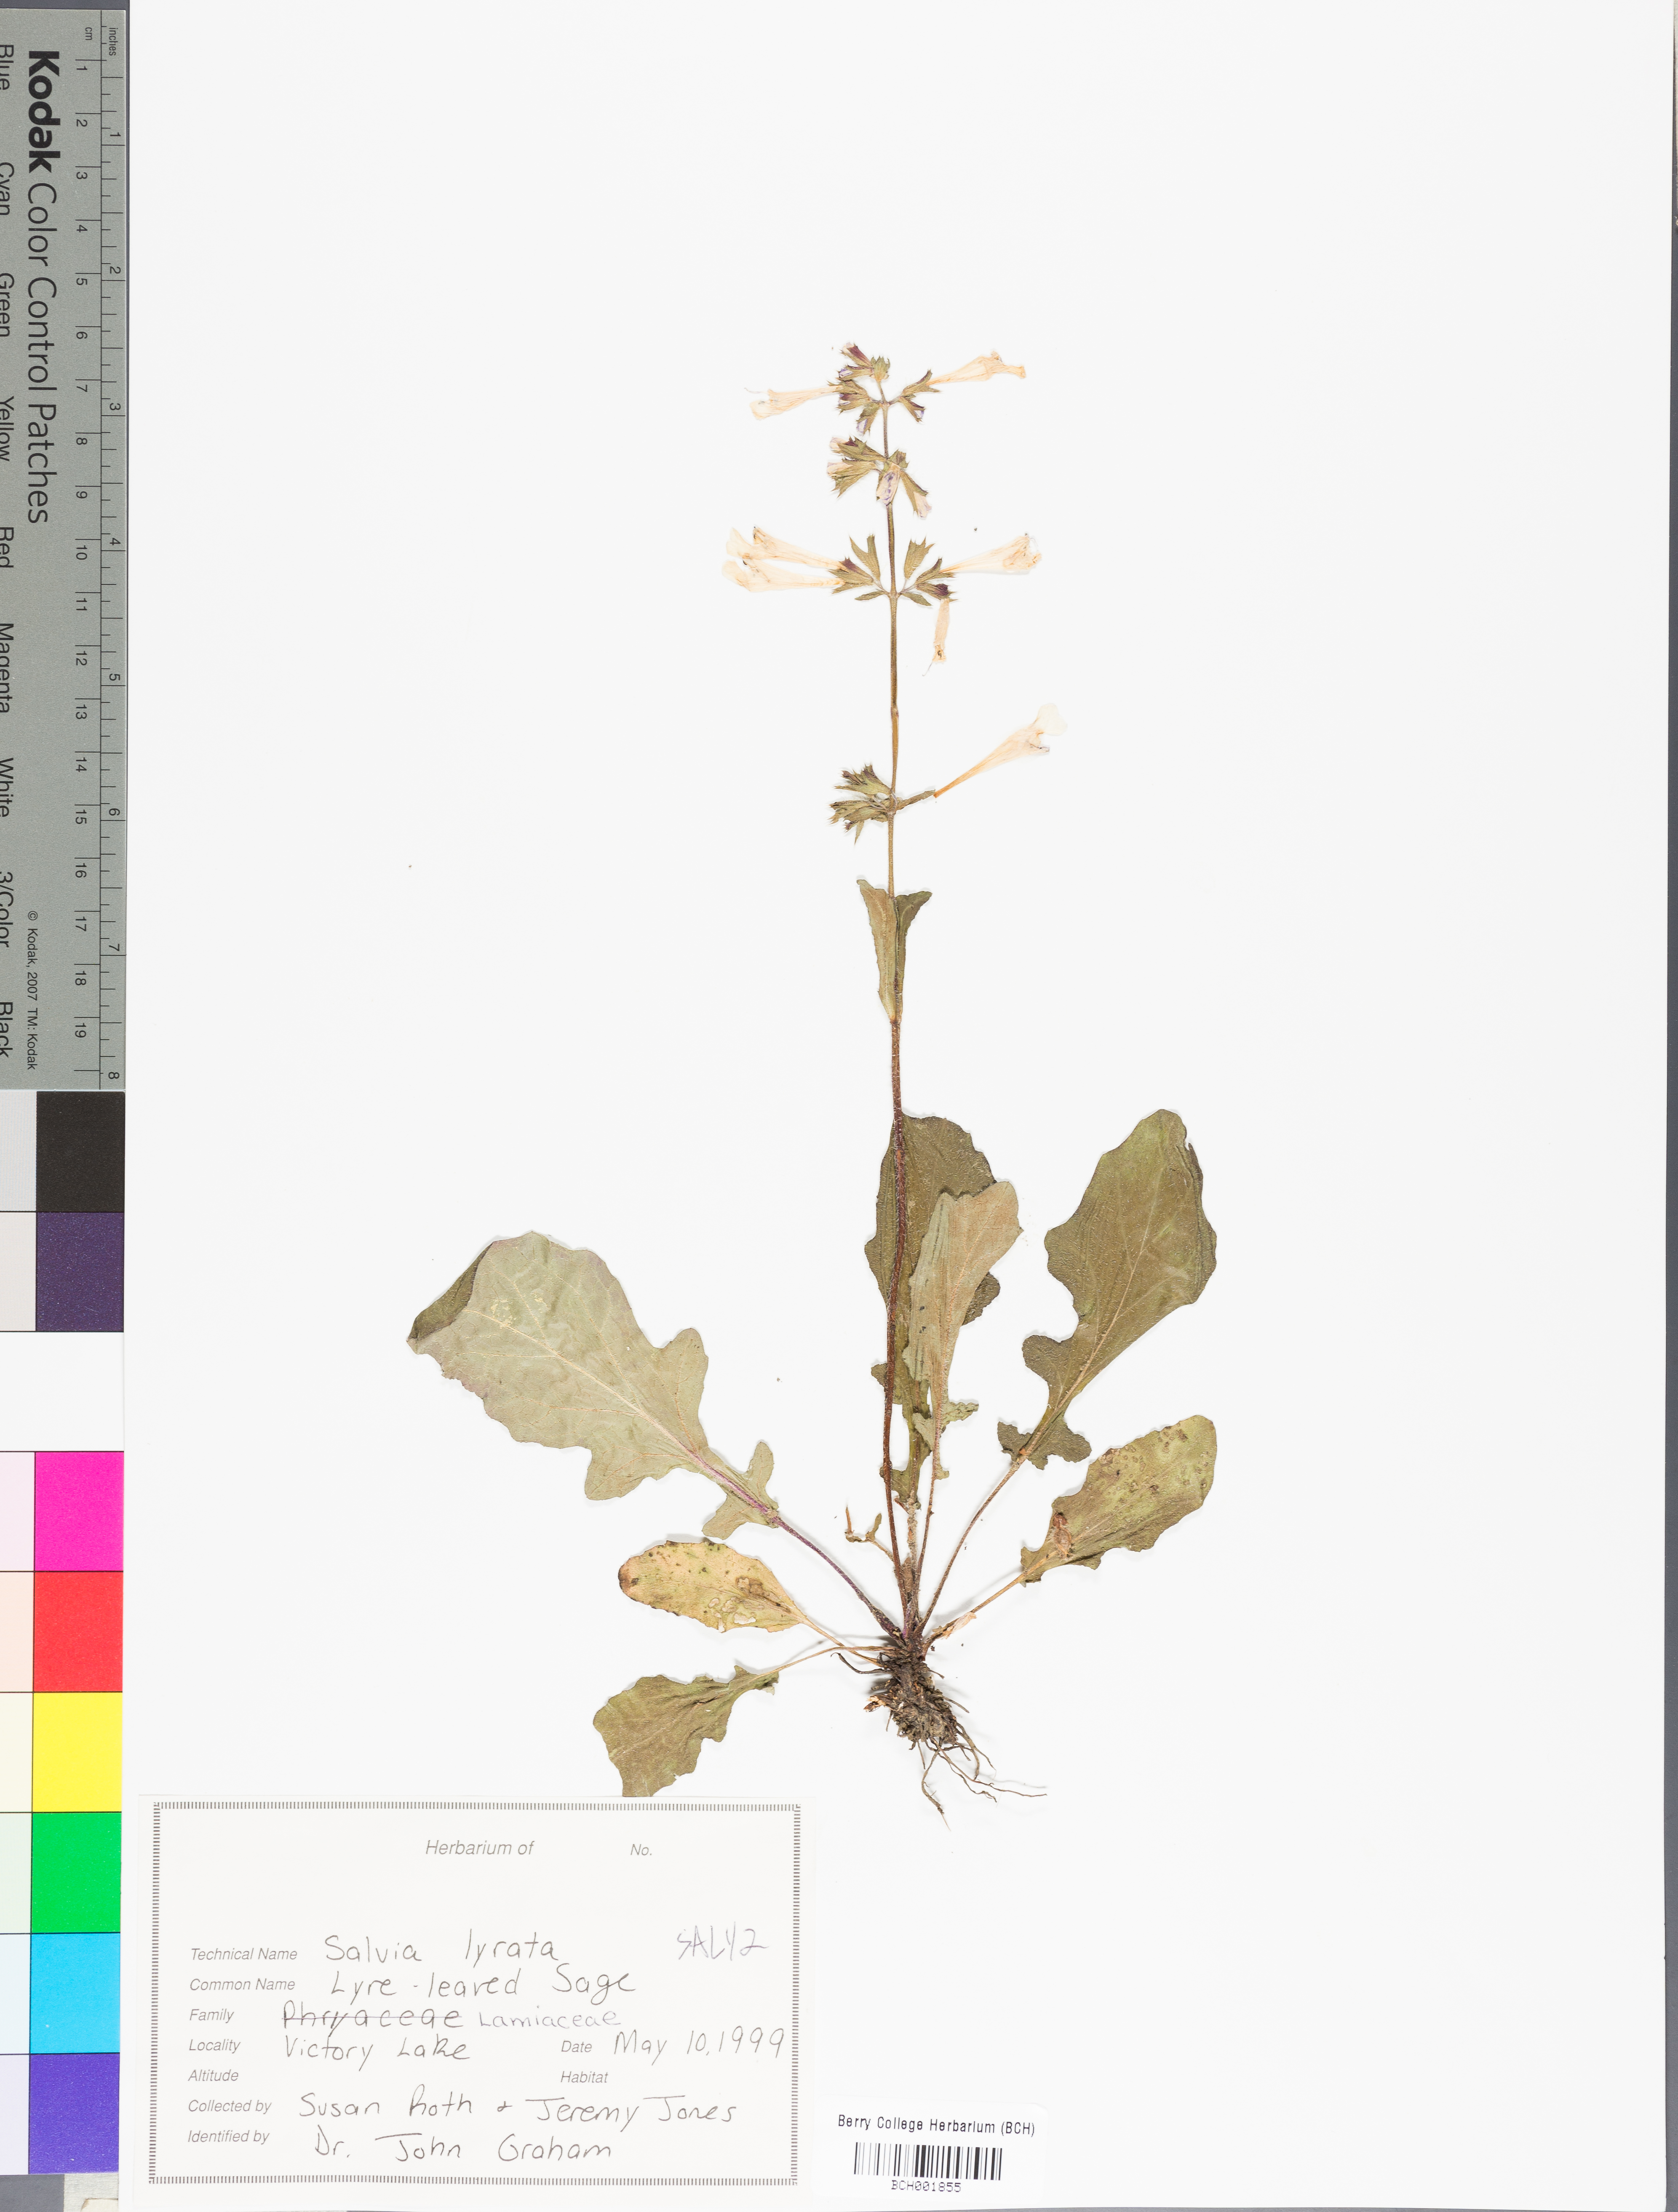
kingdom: Plantae
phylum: Tracheophyta
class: Magnoliopsida
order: Lamiales
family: Lamiaceae
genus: Salvia
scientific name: Salvia lyrata
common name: Cancerweed
